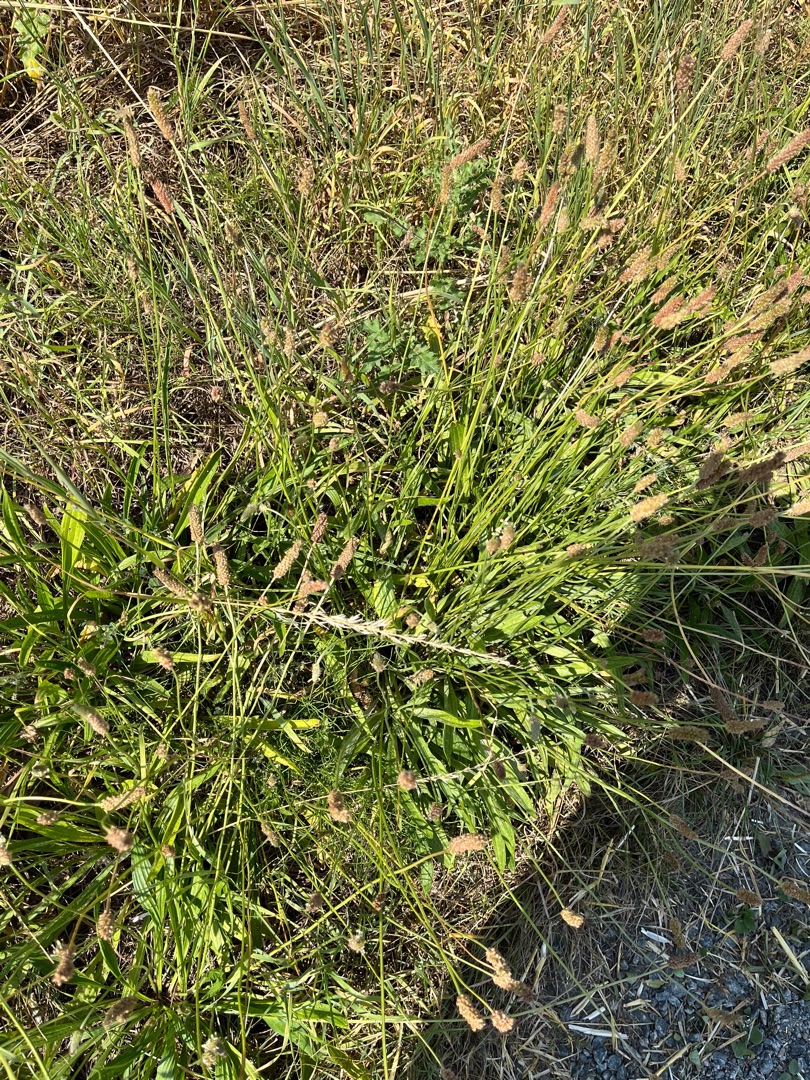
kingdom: Plantae
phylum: Tracheophyta
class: Magnoliopsida
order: Lamiales
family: Plantaginaceae
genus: Plantago
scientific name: Plantago lanceolata
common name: Lancet-vejbred
